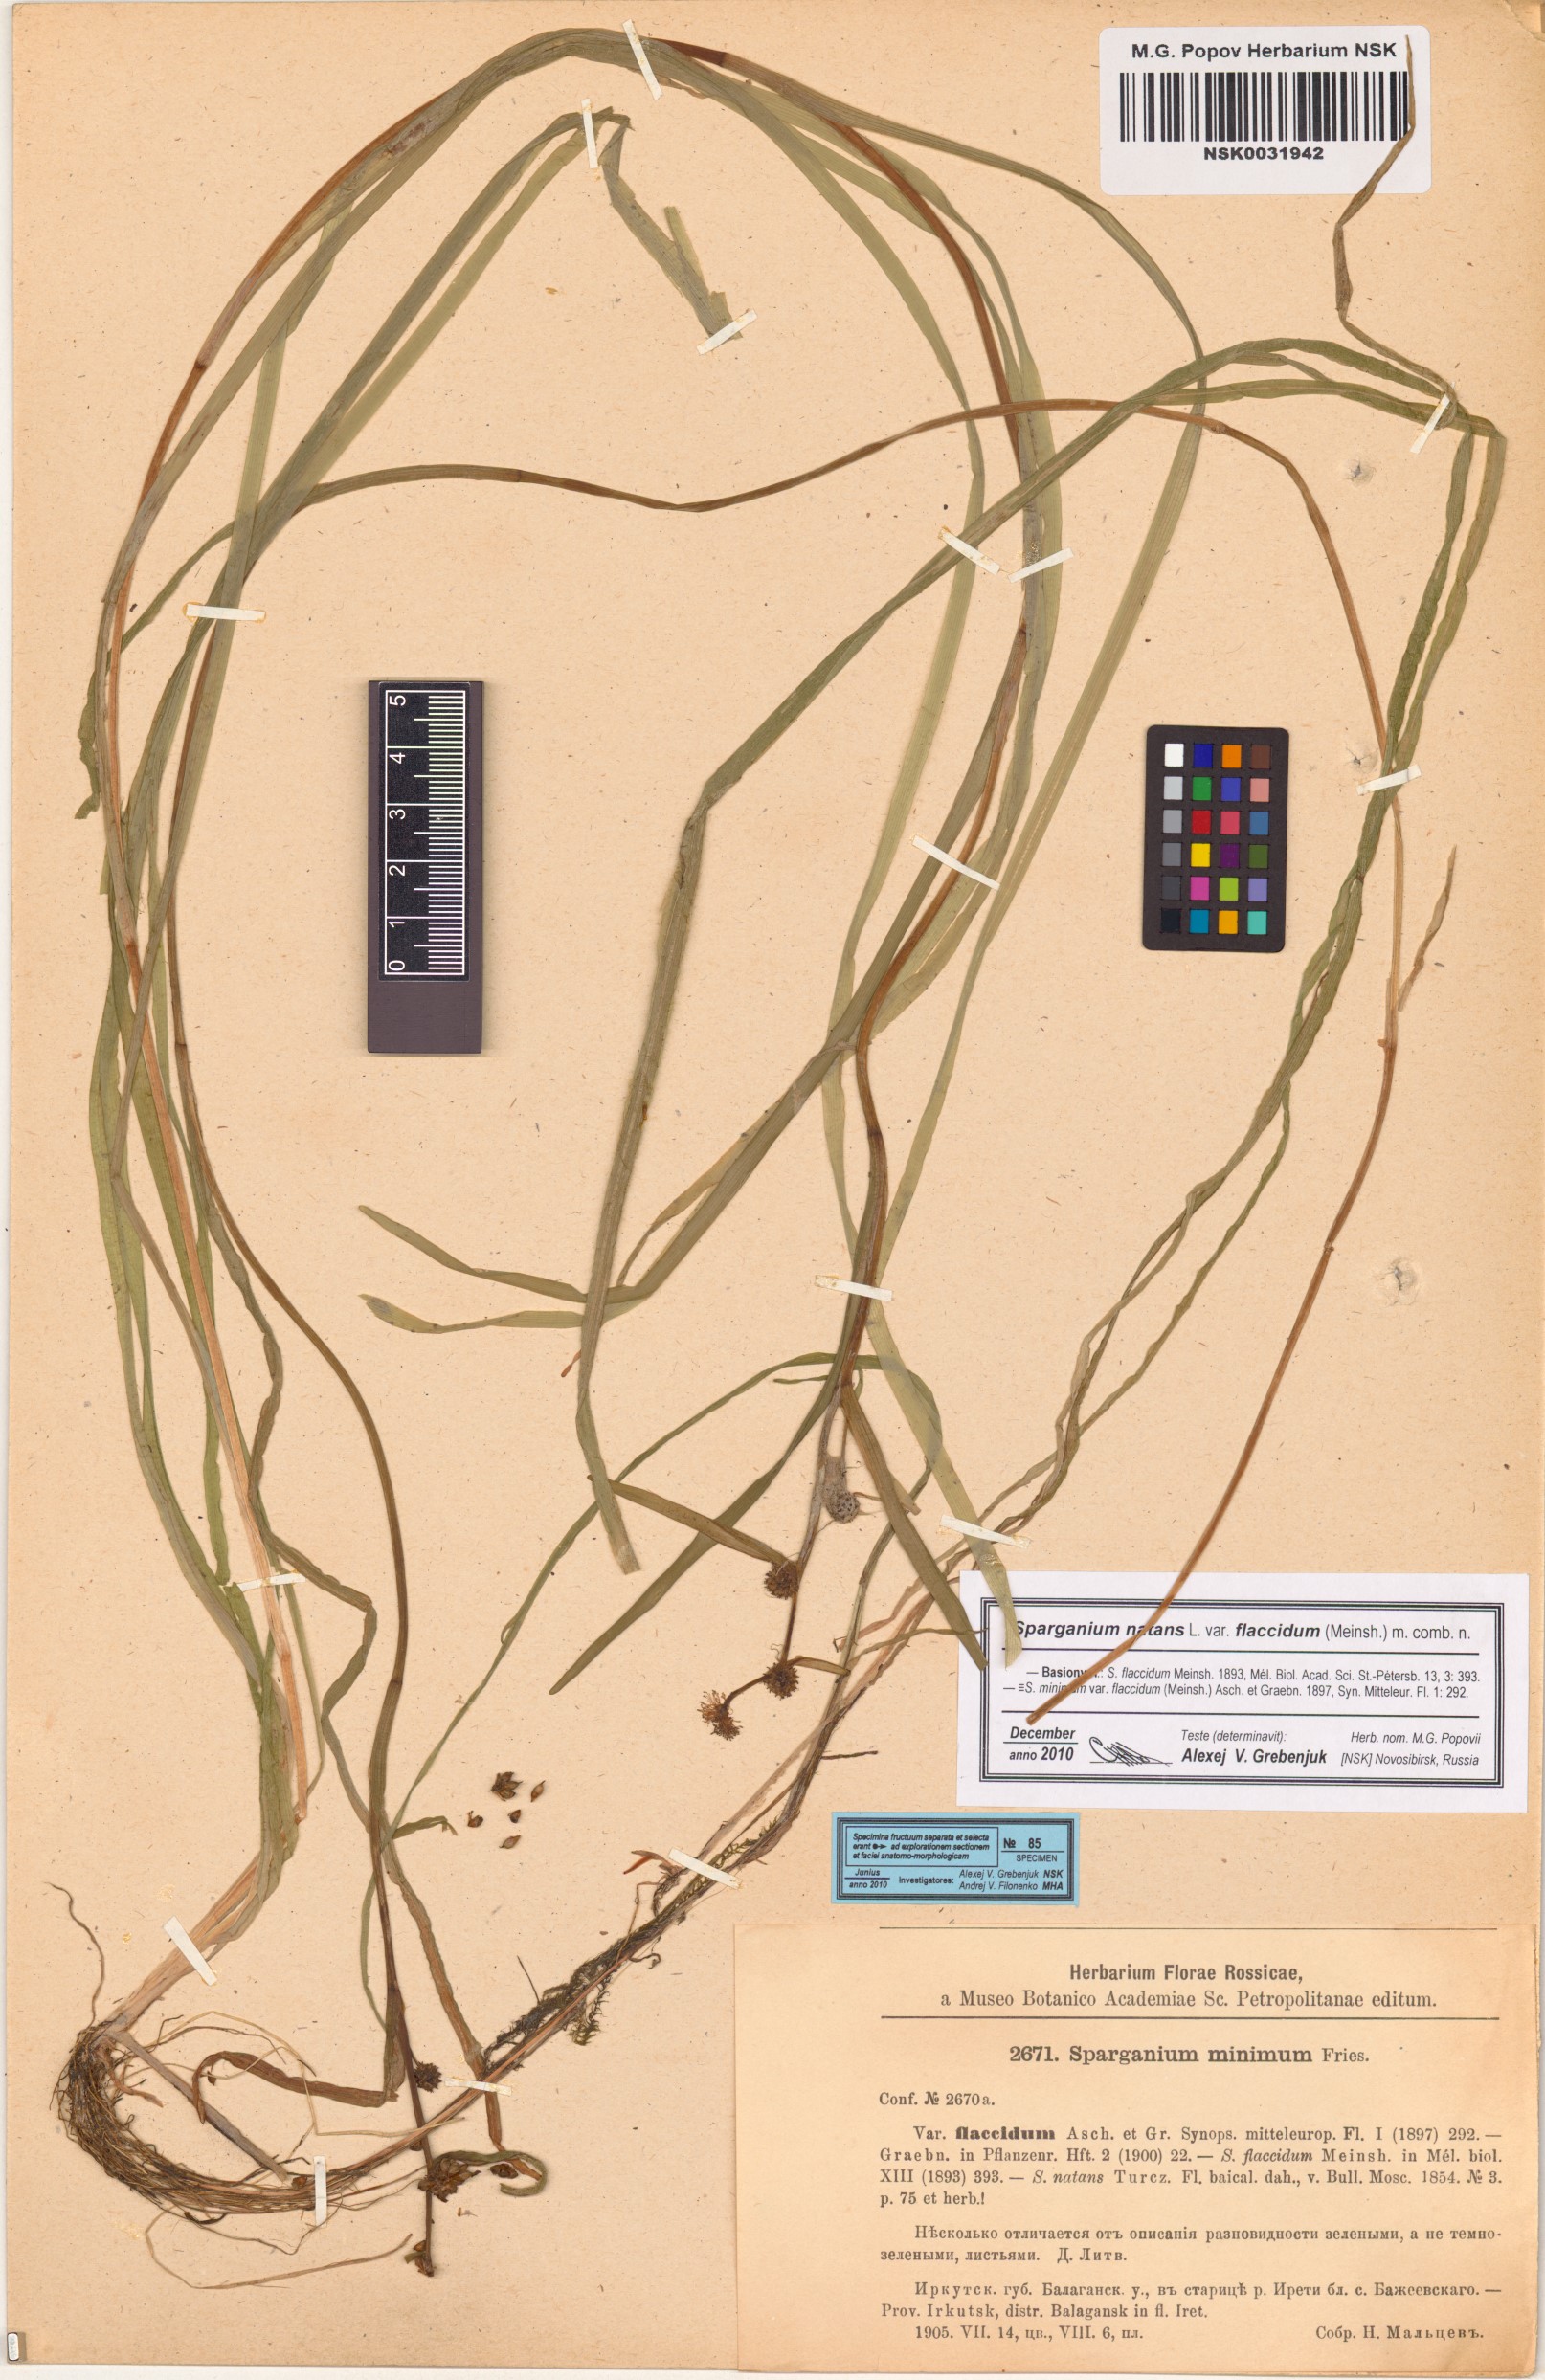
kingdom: Plantae
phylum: Tracheophyta
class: Liliopsida
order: Poales
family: Typhaceae
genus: Sparganium
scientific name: Sparganium natans
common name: Least bur-reed
